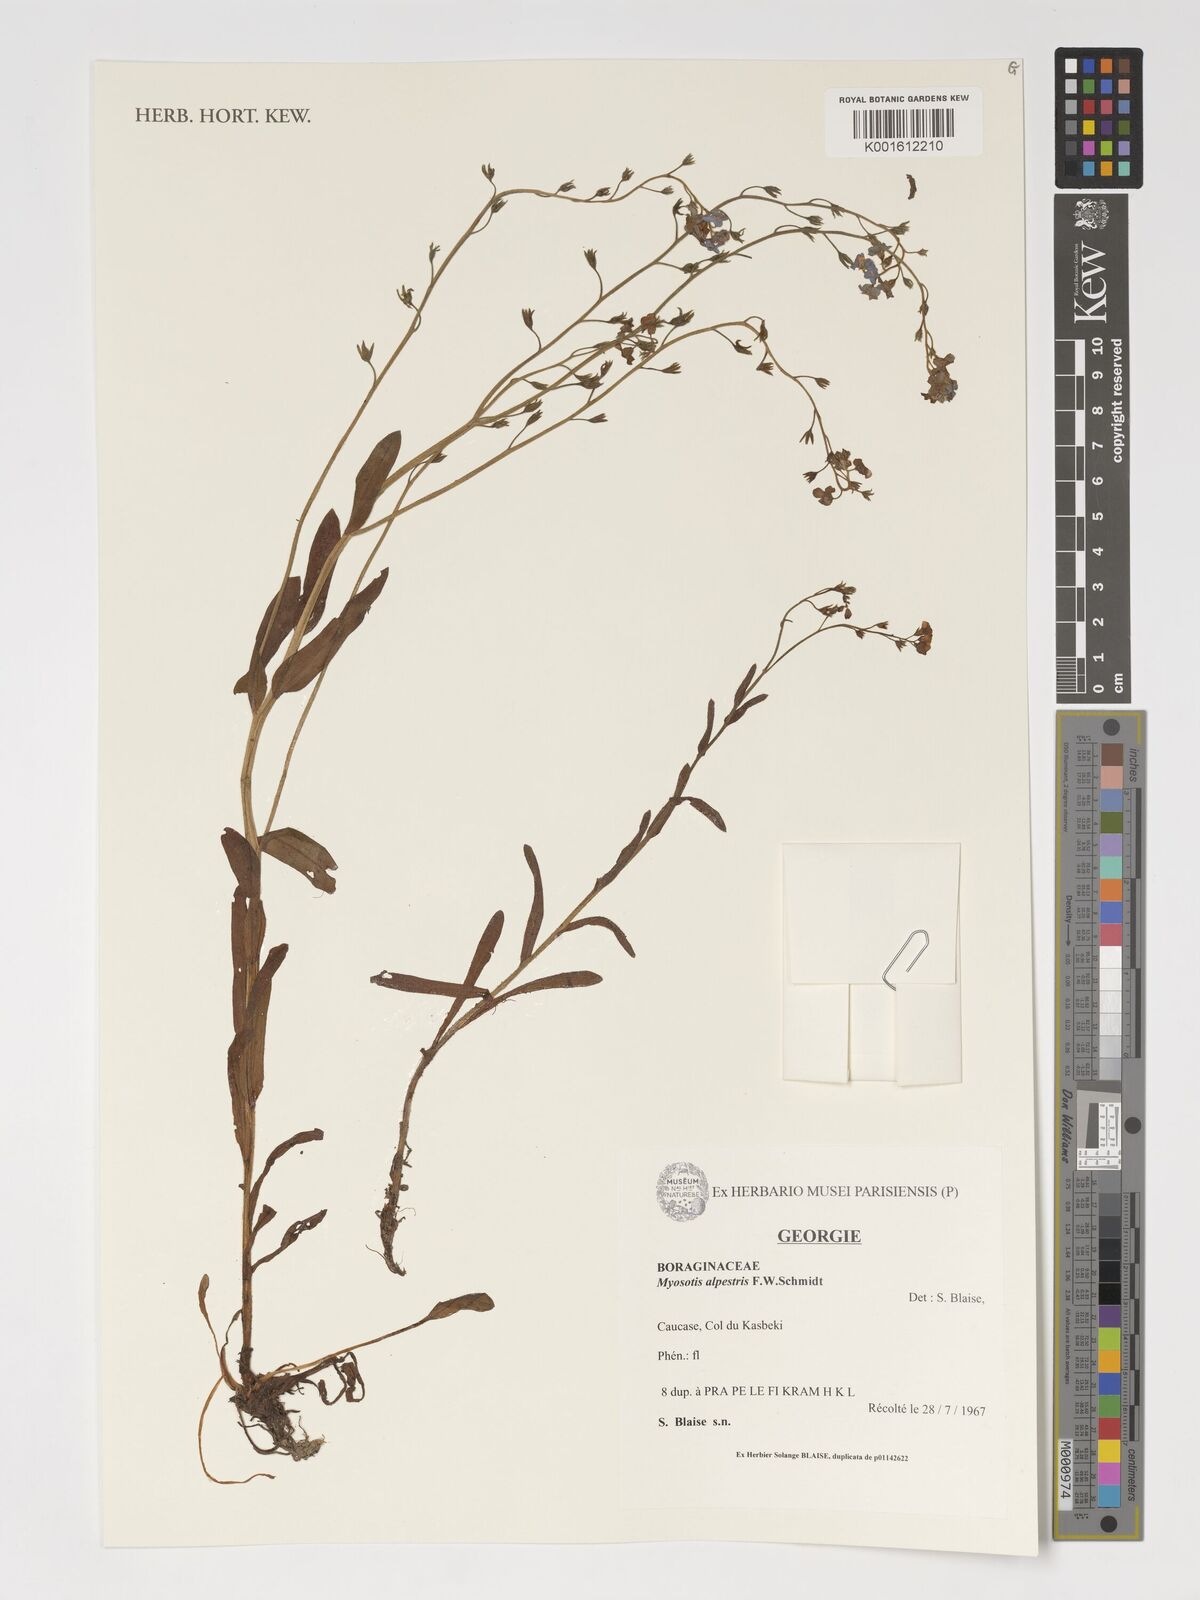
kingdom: Plantae
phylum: Tracheophyta
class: Magnoliopsida
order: Boraginales
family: Boraginaceae
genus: Myosotis
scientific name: Myosotis alpestris
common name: Alpine forget-me-not
